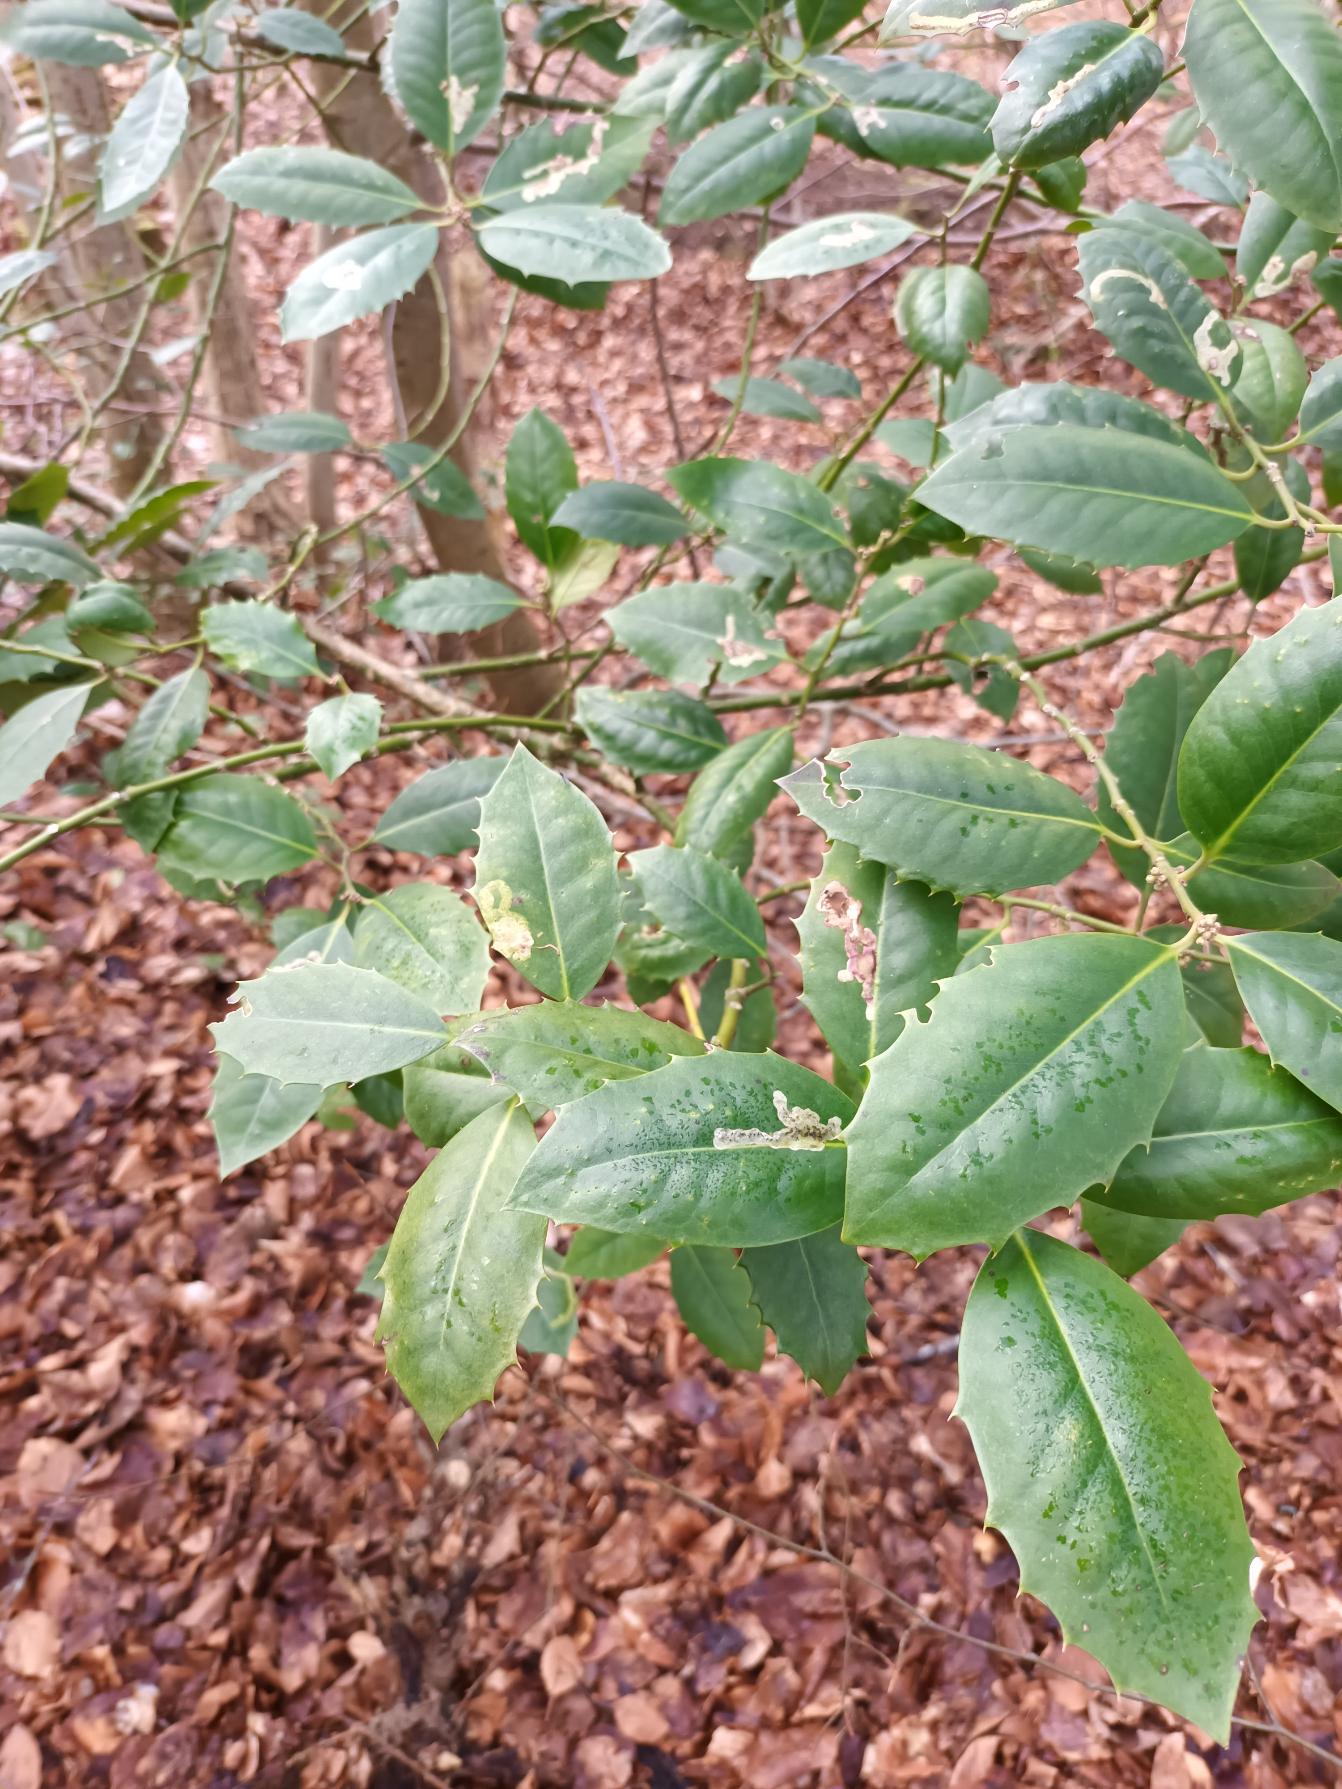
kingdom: Plantae
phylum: Tracheophyta
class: Magnoliopsida
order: Aquifoliales
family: Aquifoliaceae
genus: Ilex
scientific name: Ilex altaclerensis
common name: Storbladet kristtorn
